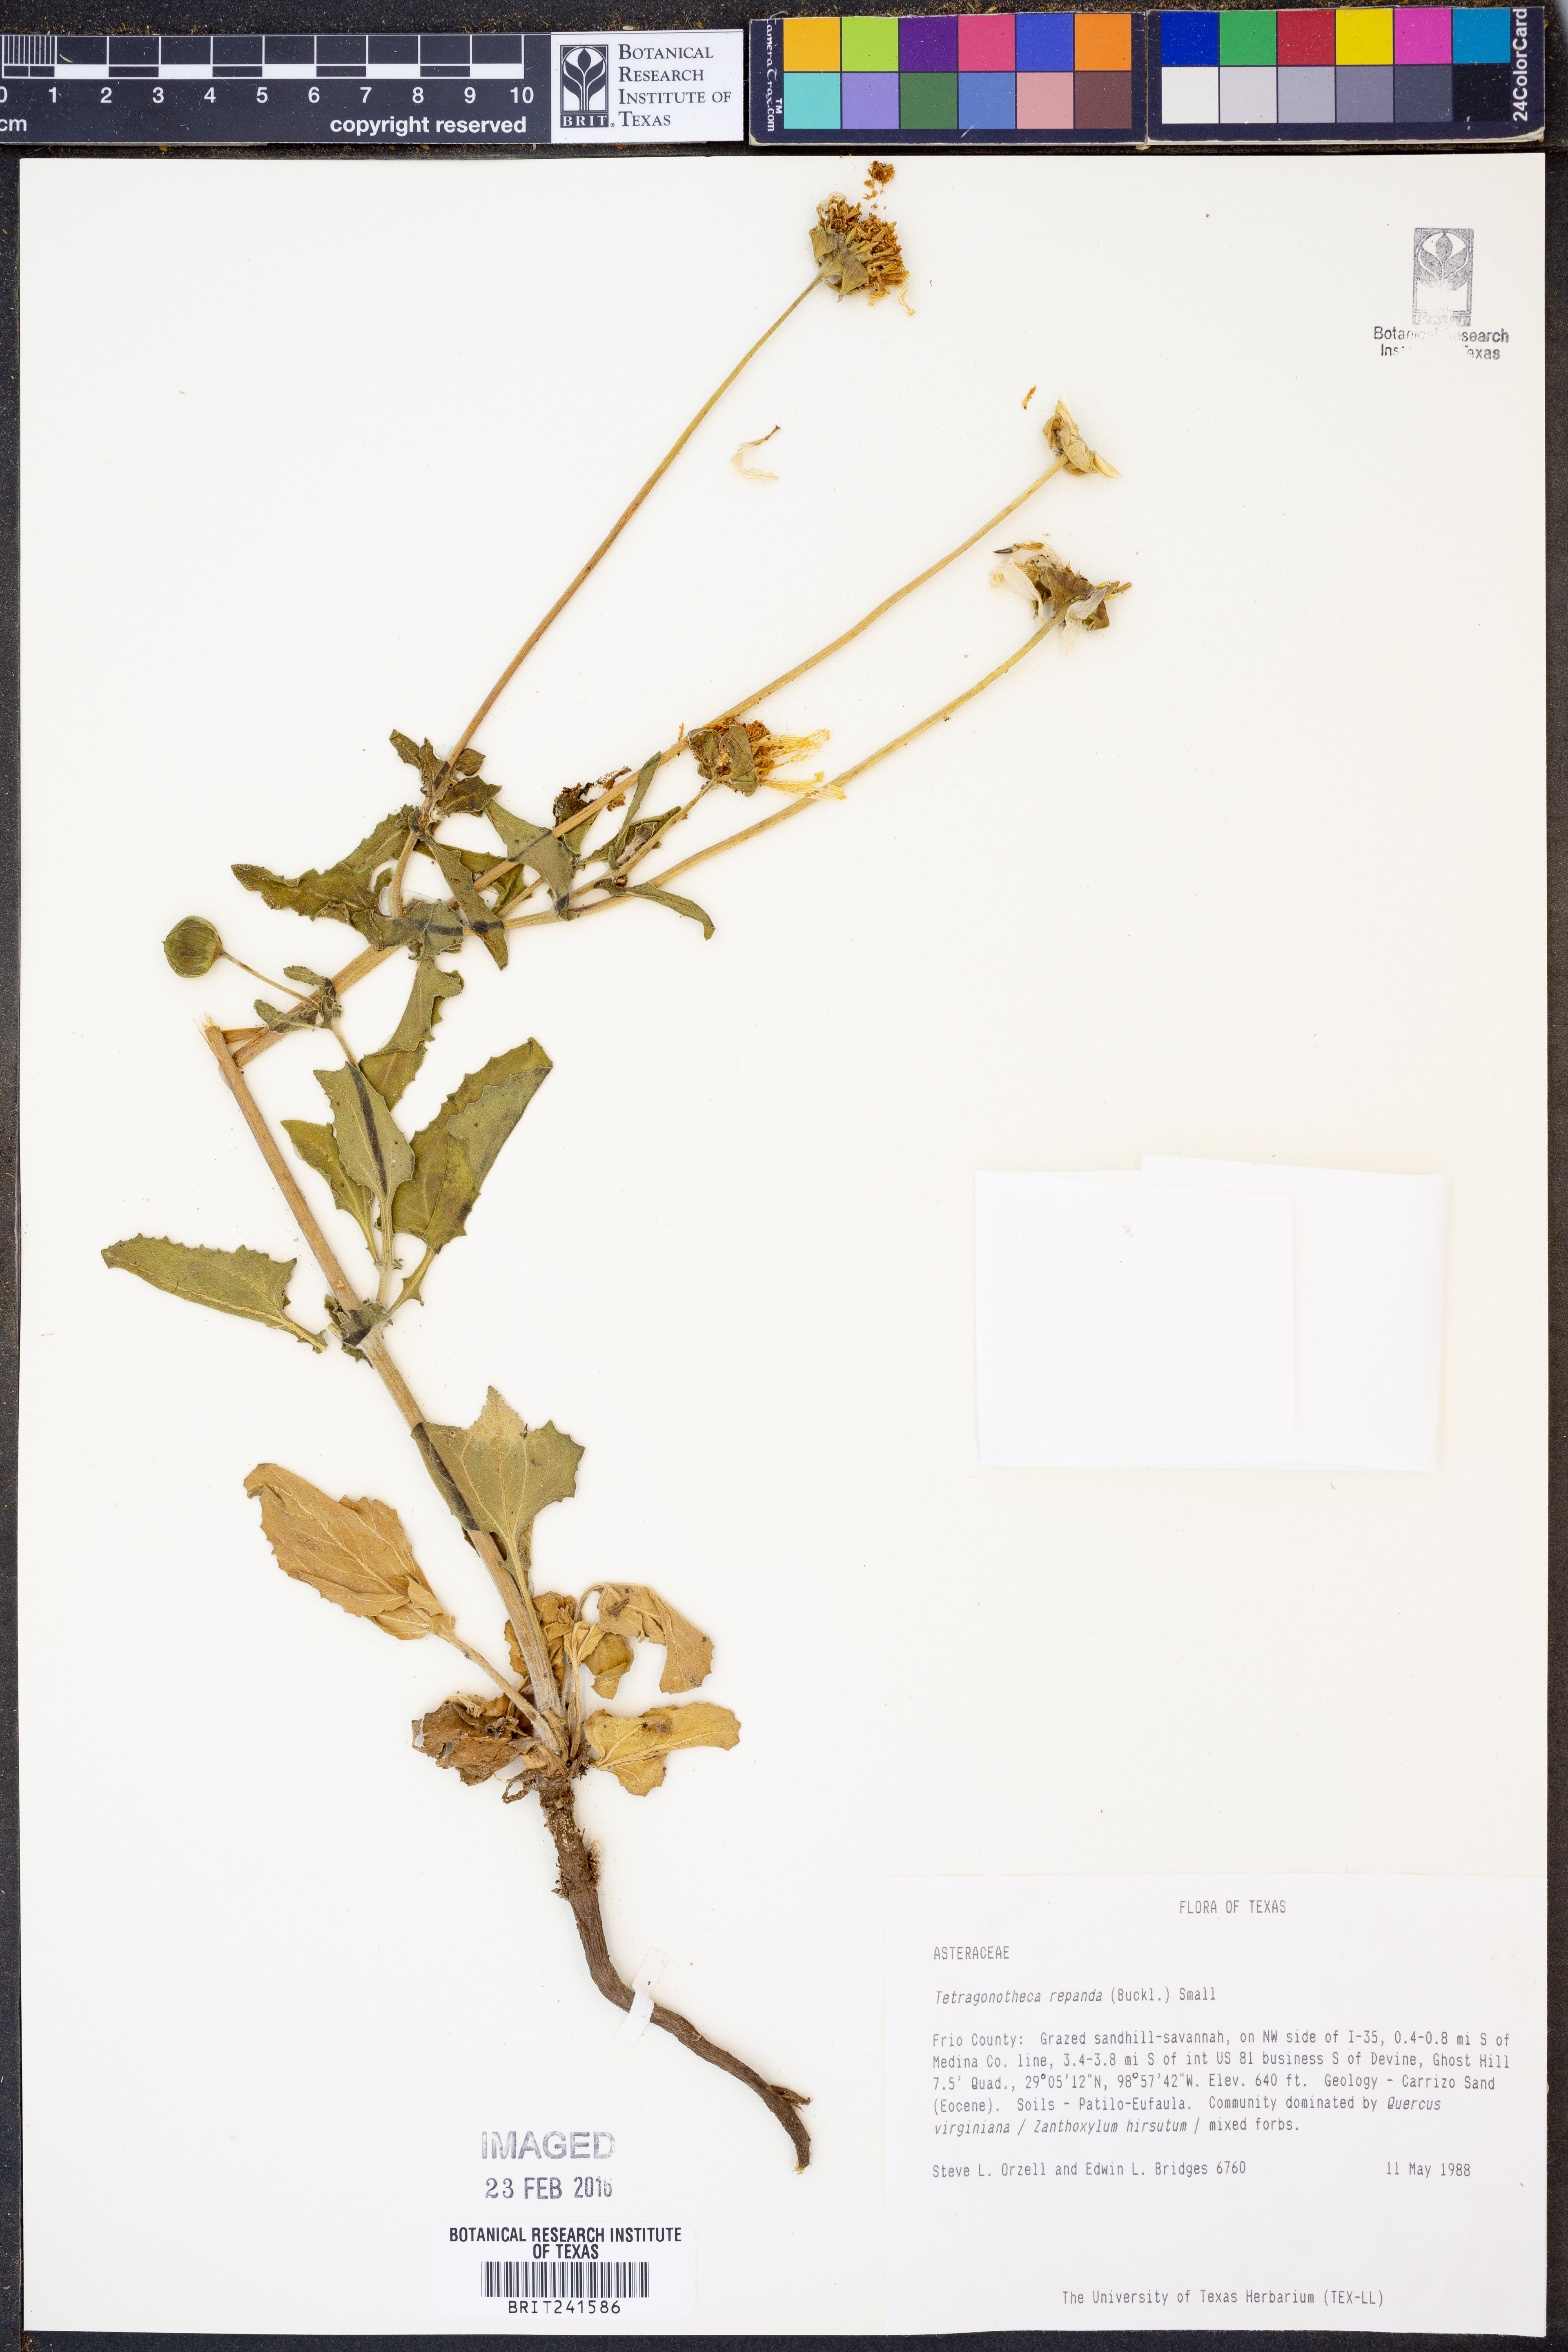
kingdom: Plantae
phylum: Tracheophyta
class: Magnoliopsida
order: Asterales
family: Asteraceae
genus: Tetragonotheca
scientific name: Tetragonotheca repanda
